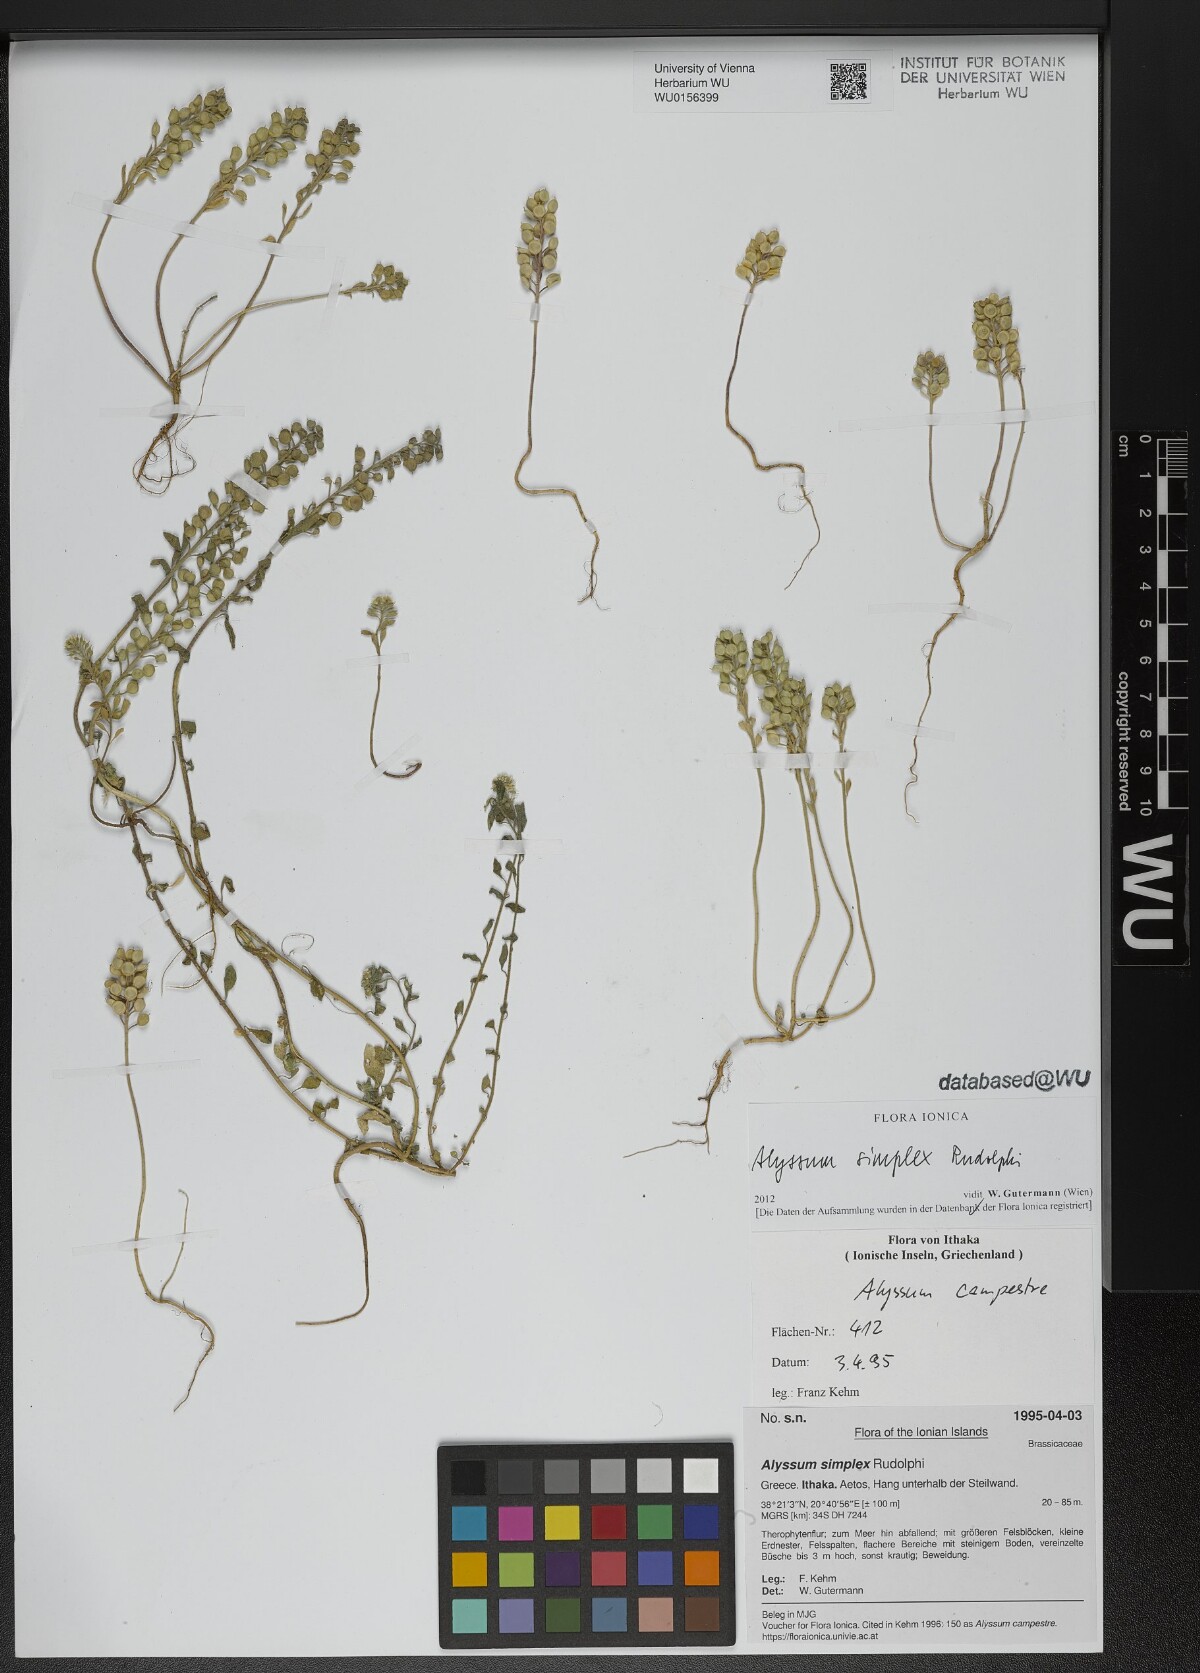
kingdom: Plantae
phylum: Tracheophyta
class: Magnoliopsida
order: Brassicales
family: Brassicaceae
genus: Alyssum
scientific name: Alyssum simplex
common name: Alyssum
